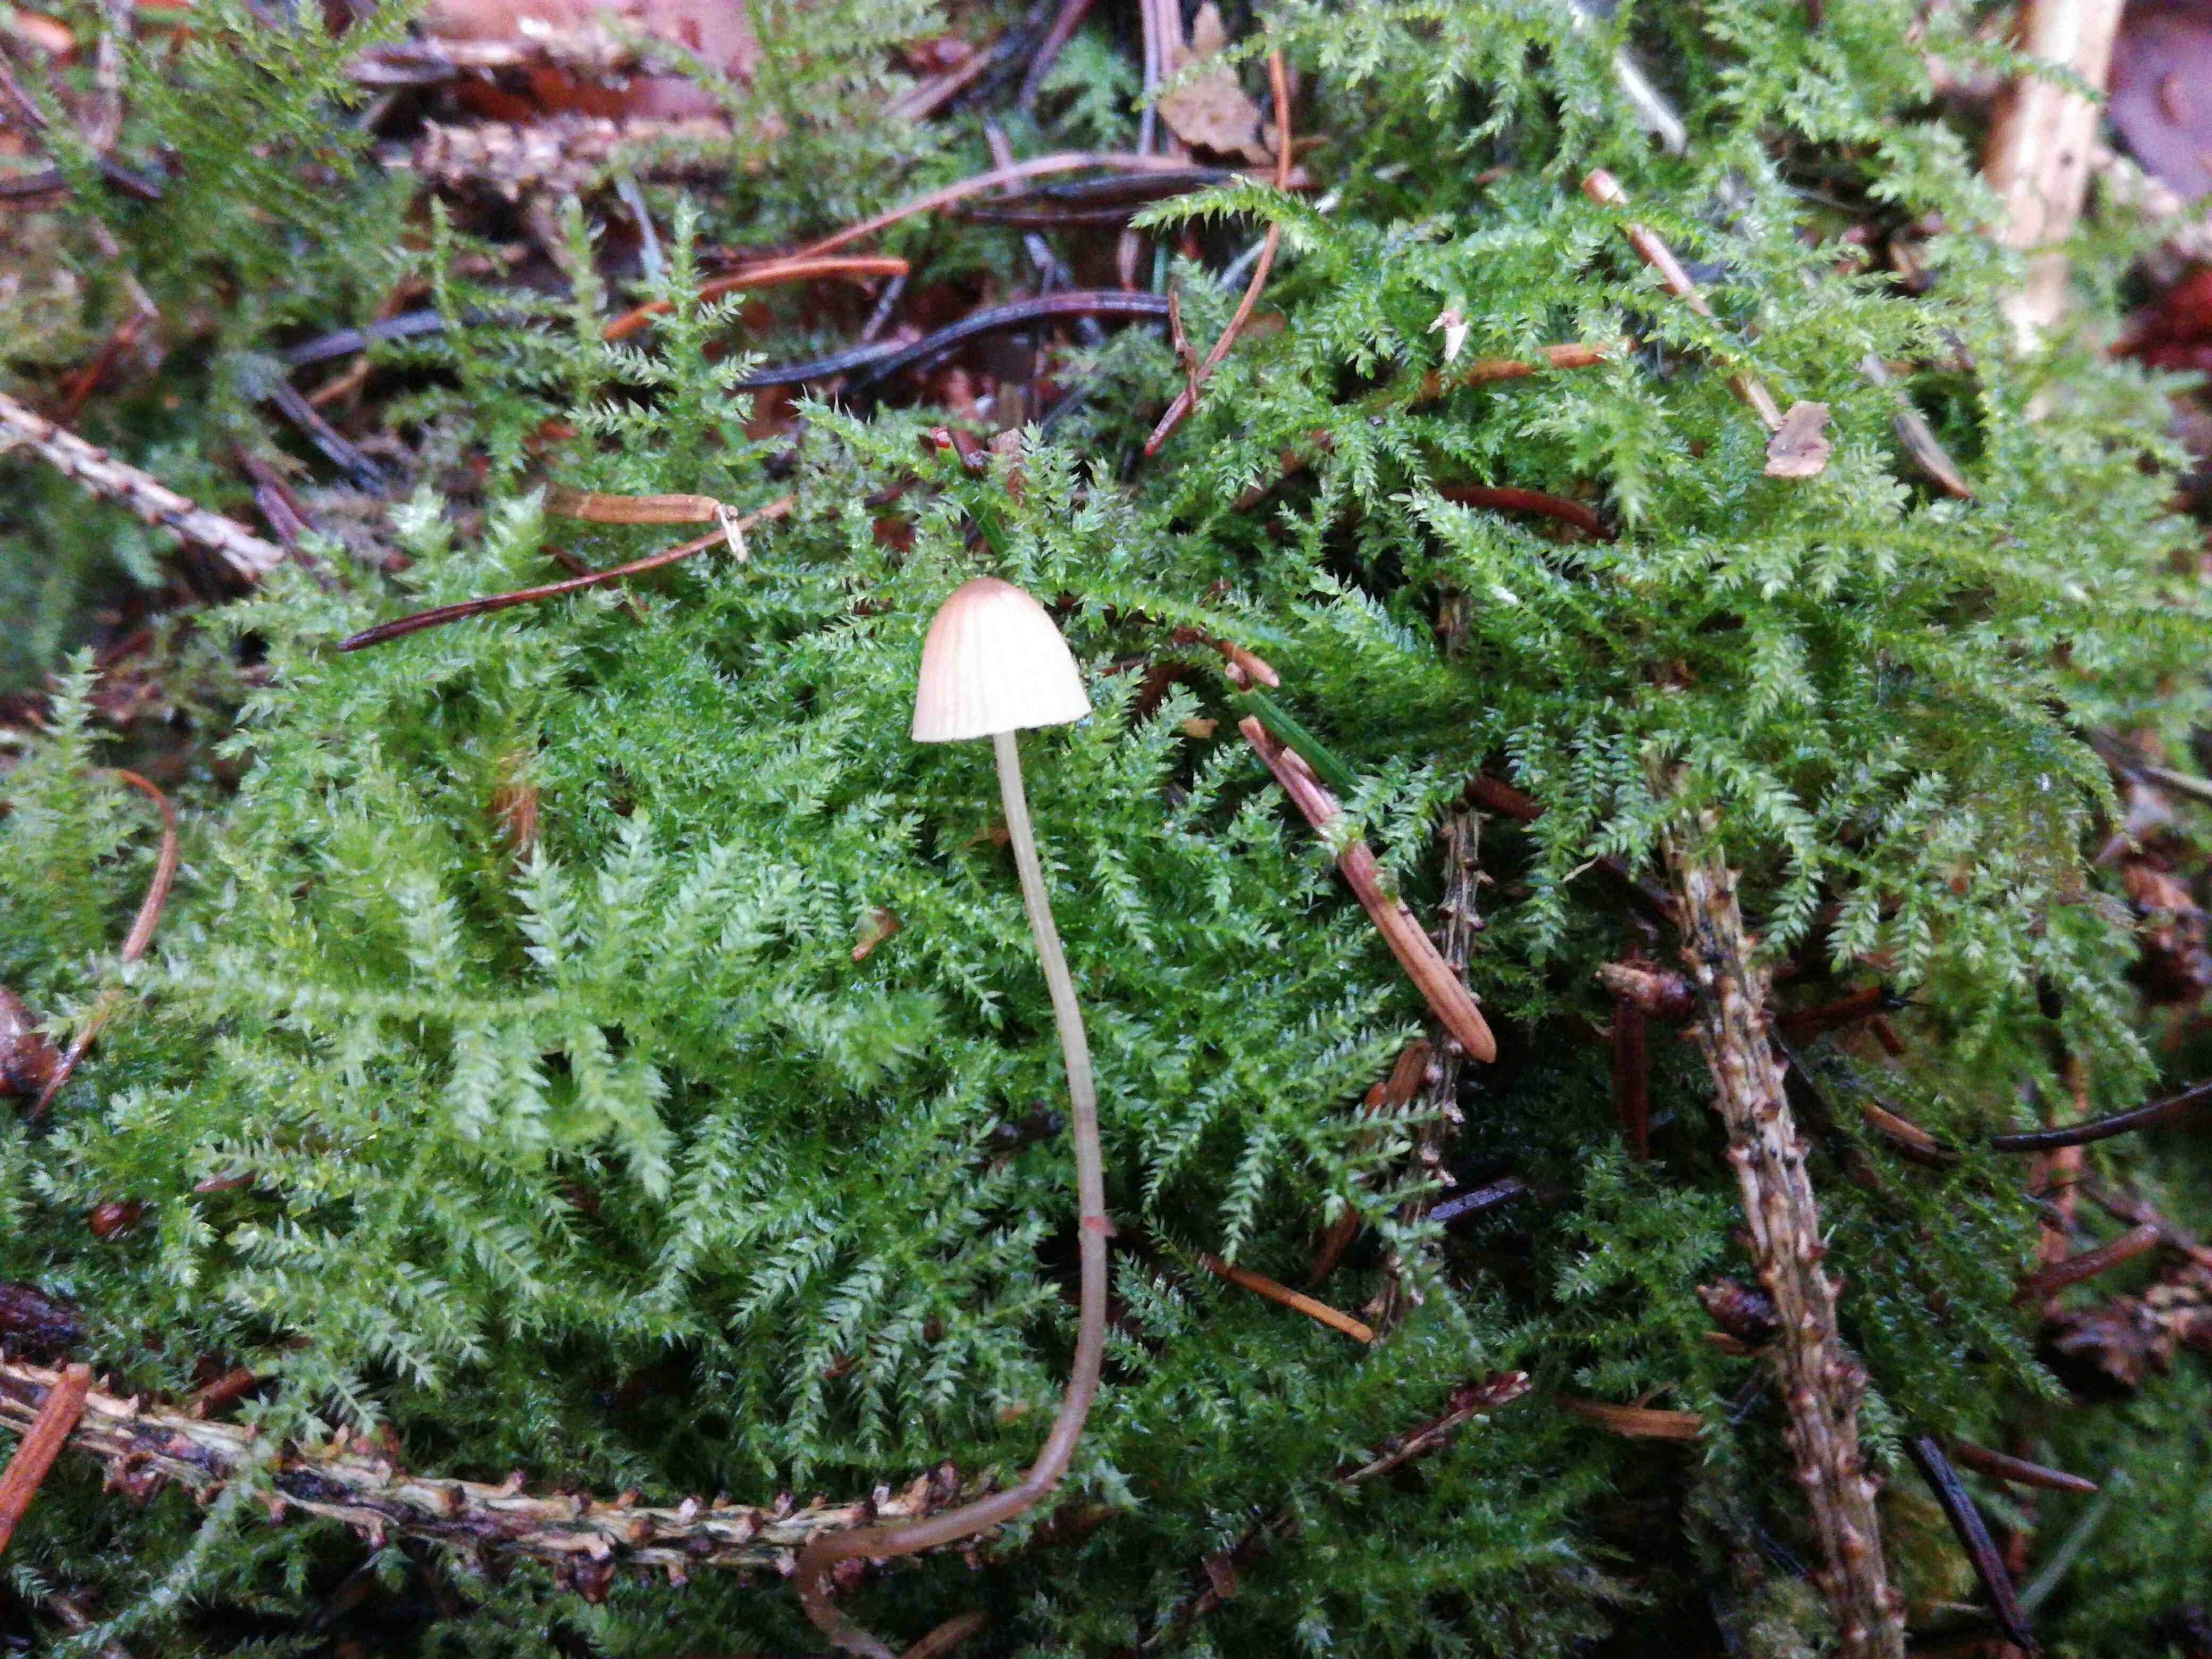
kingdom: Fungi
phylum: Basidiomycota
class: Agaricomycetes
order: Agaricales
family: Mycenaceae
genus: Mycena
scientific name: Mycena
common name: huesvamp
